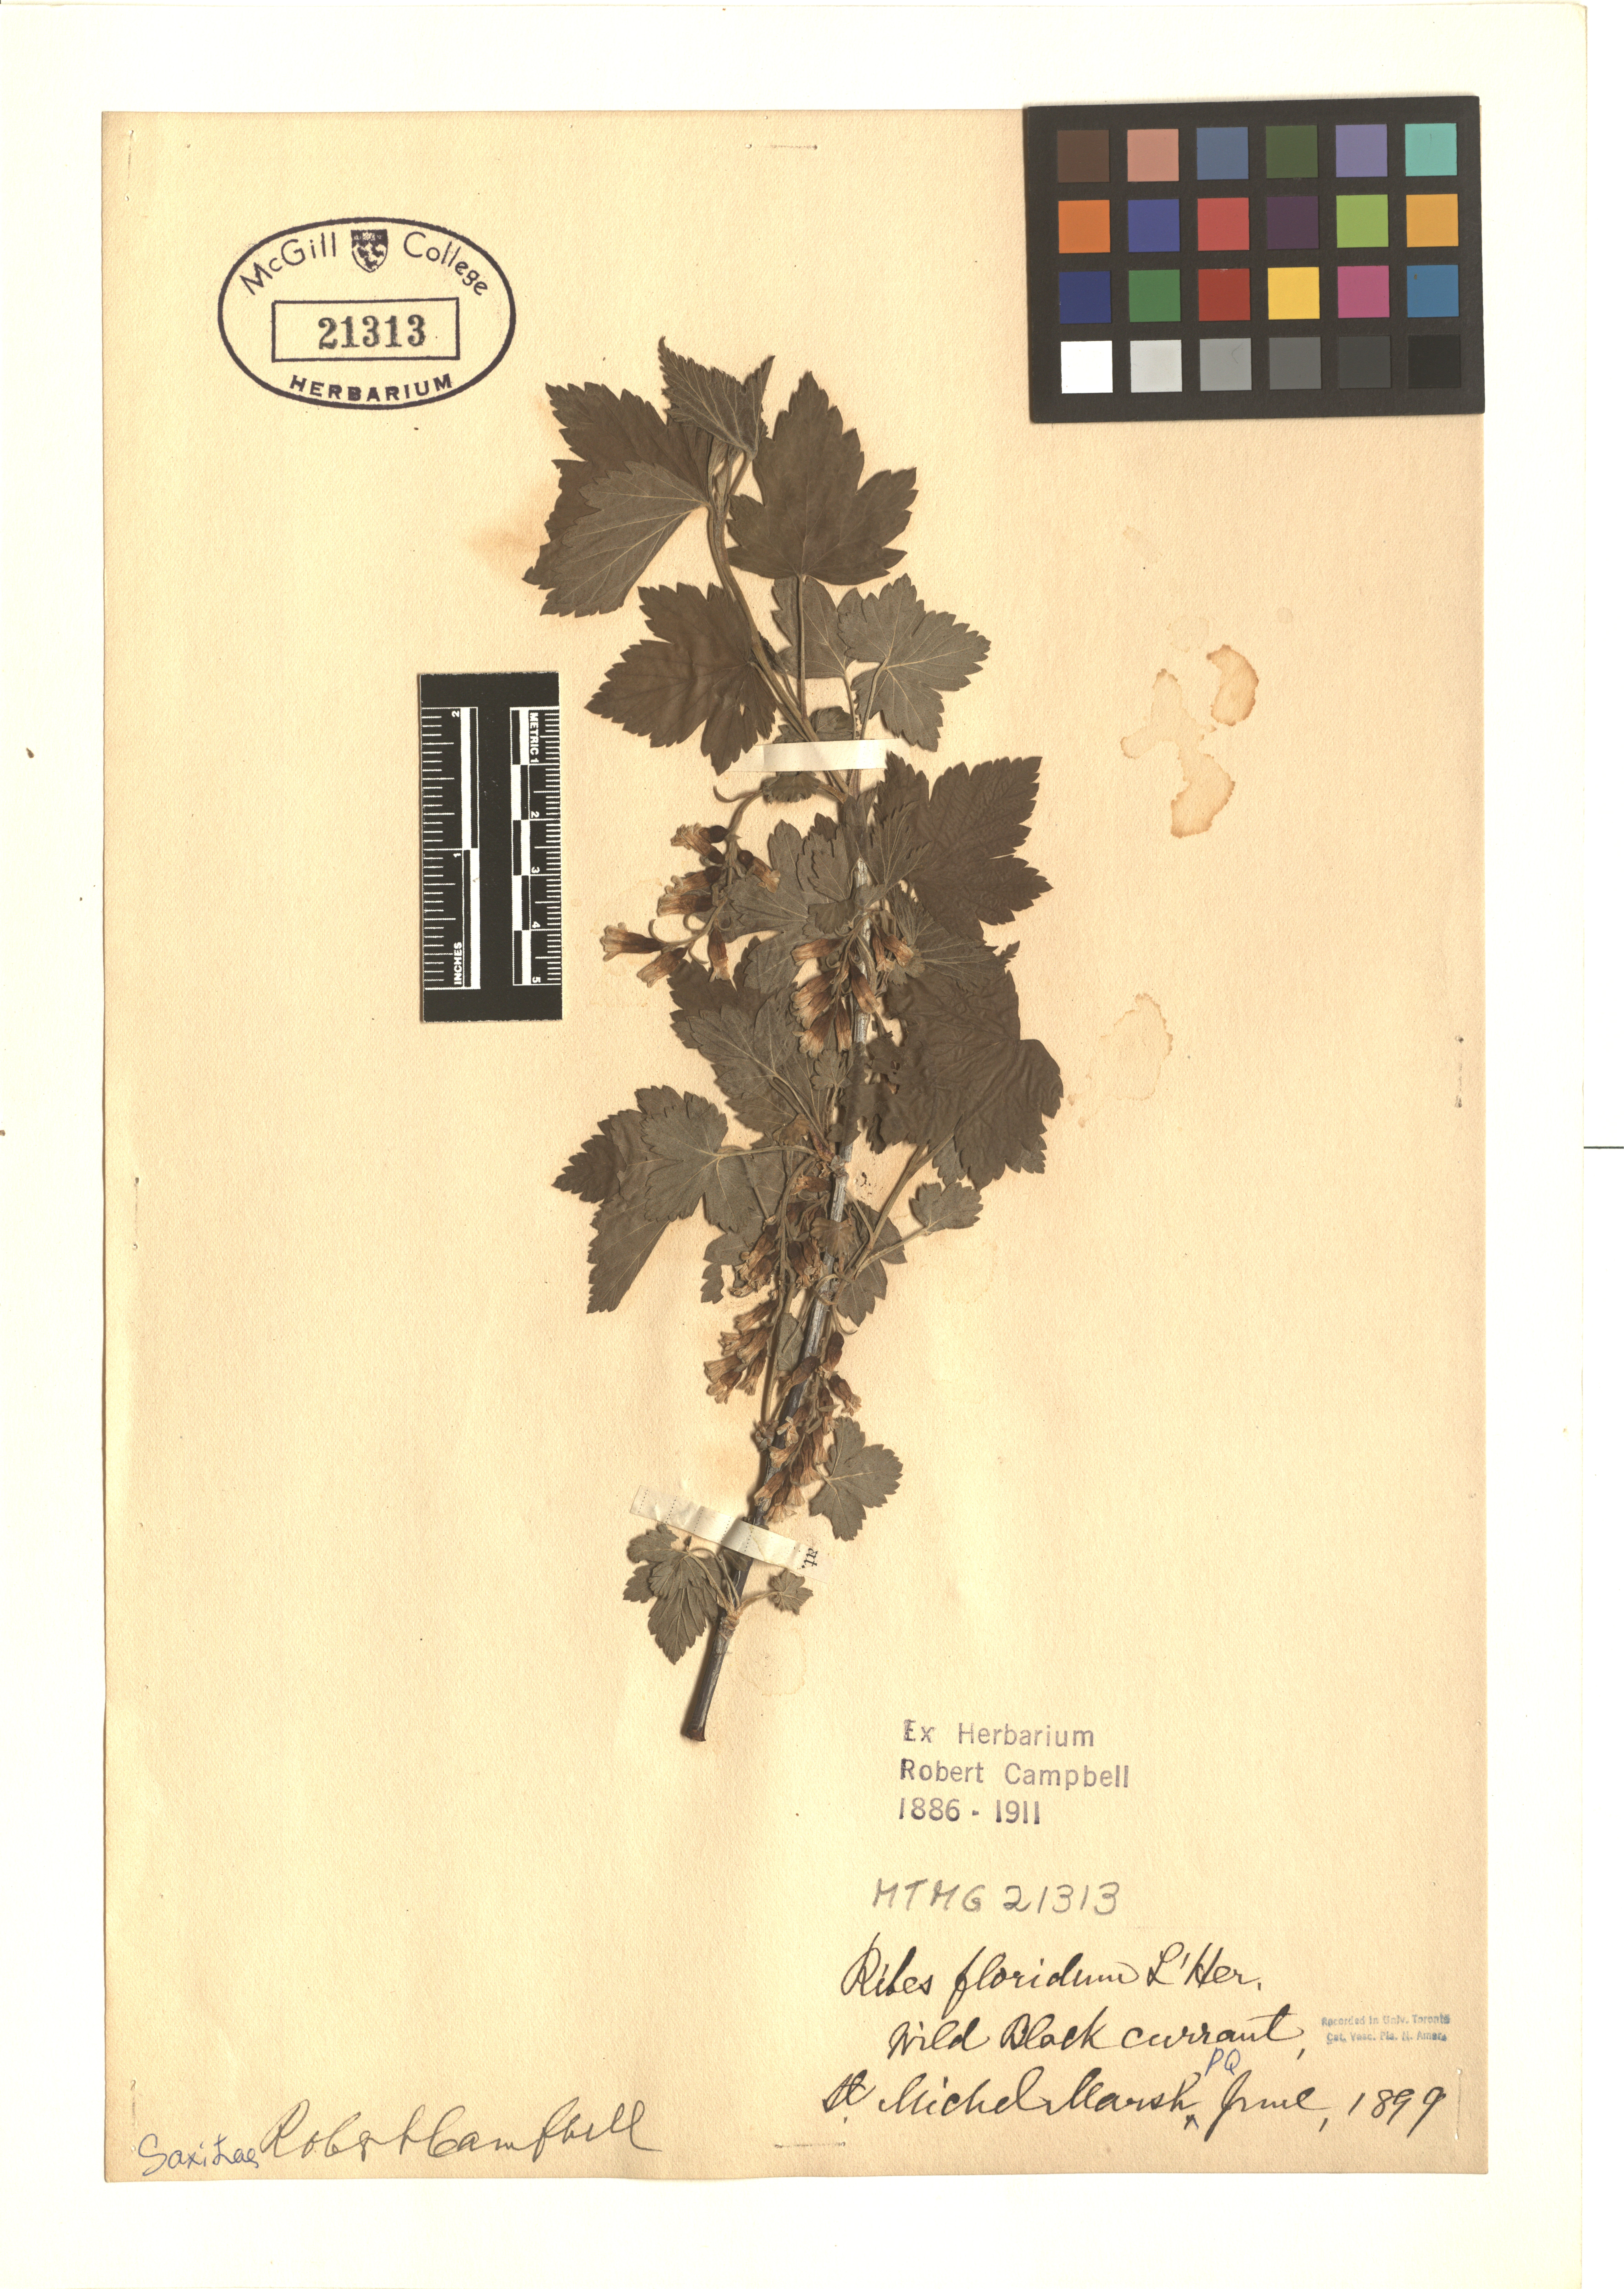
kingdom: Plantae
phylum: Tracheophyta
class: Magnoliopsida
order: Saxifragales
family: Grossulariaceae
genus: Ribes
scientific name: Ribes americanum
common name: American black currant
